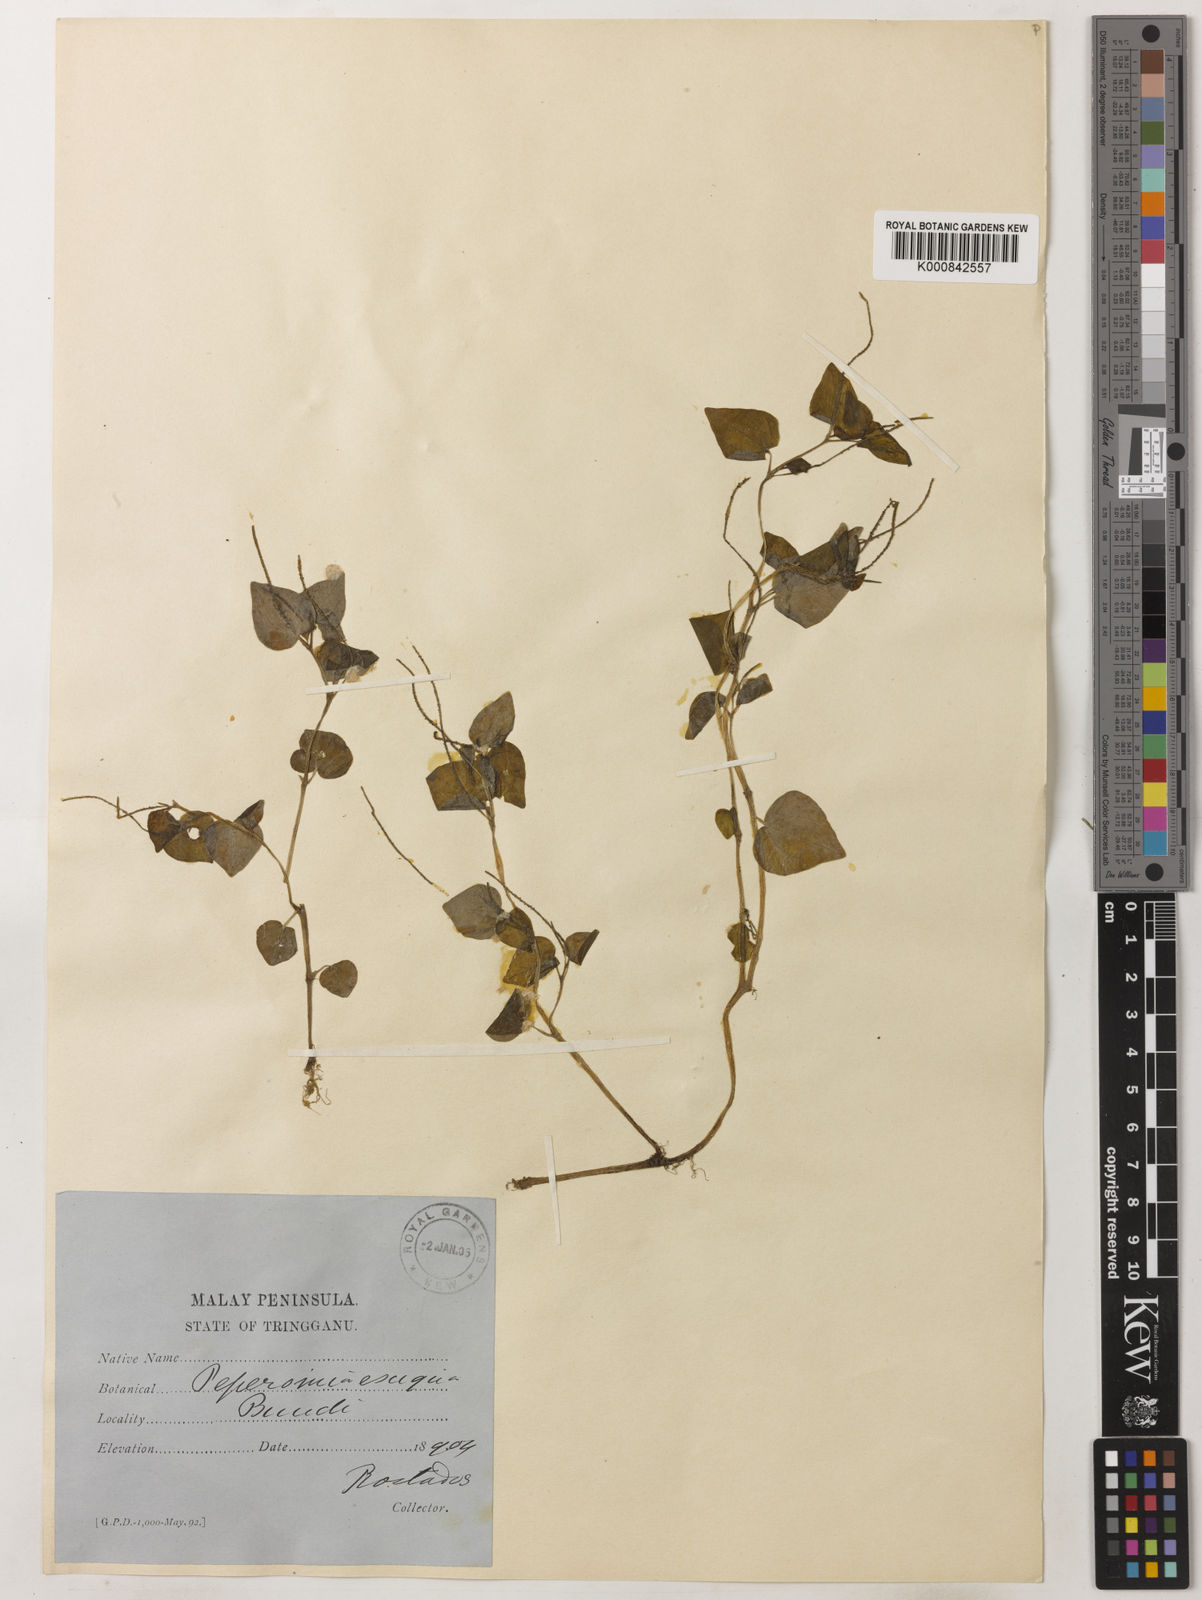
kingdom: Plantae
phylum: Tracheophyta
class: Magnoliopsida
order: Piperales
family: Piperaceae
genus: Peperomia
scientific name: Peperomia pellucida
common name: Man to man
